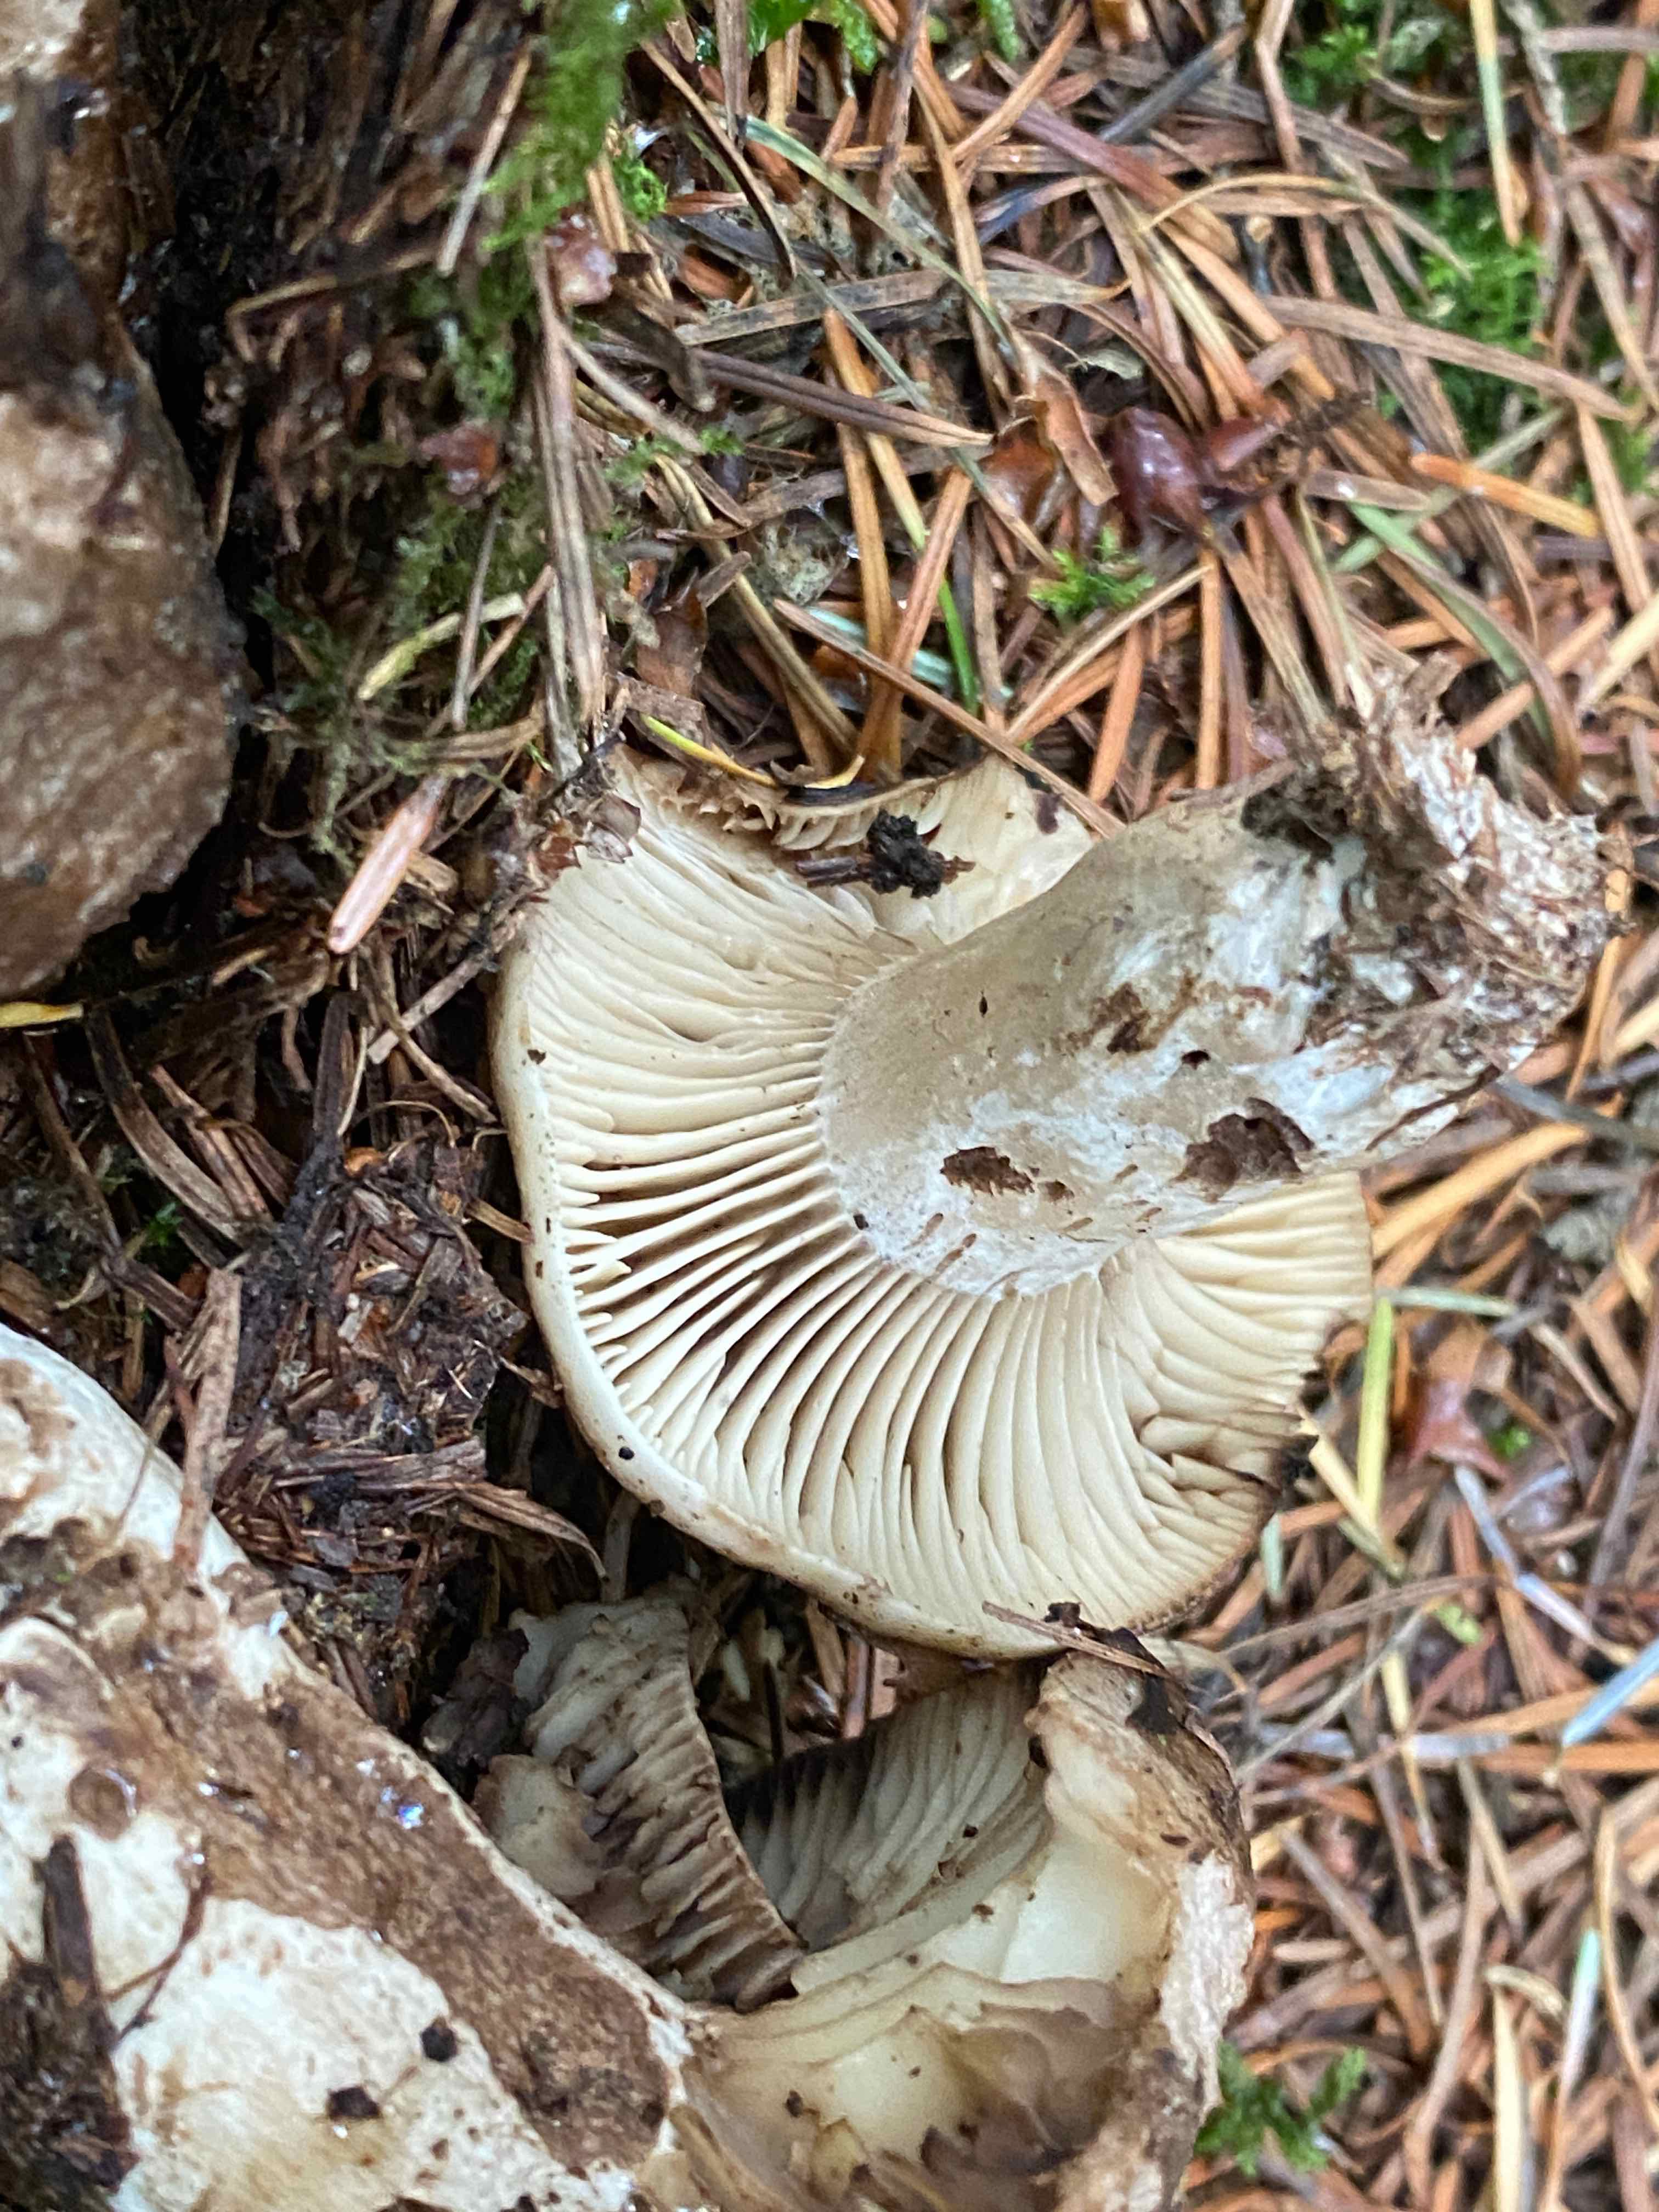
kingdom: Fungi
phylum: Basidiomycota
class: Agaricomycetes
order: Russulales
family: Russulaceae
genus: Russula
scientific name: Russula adusta
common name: sværtende skørhat
